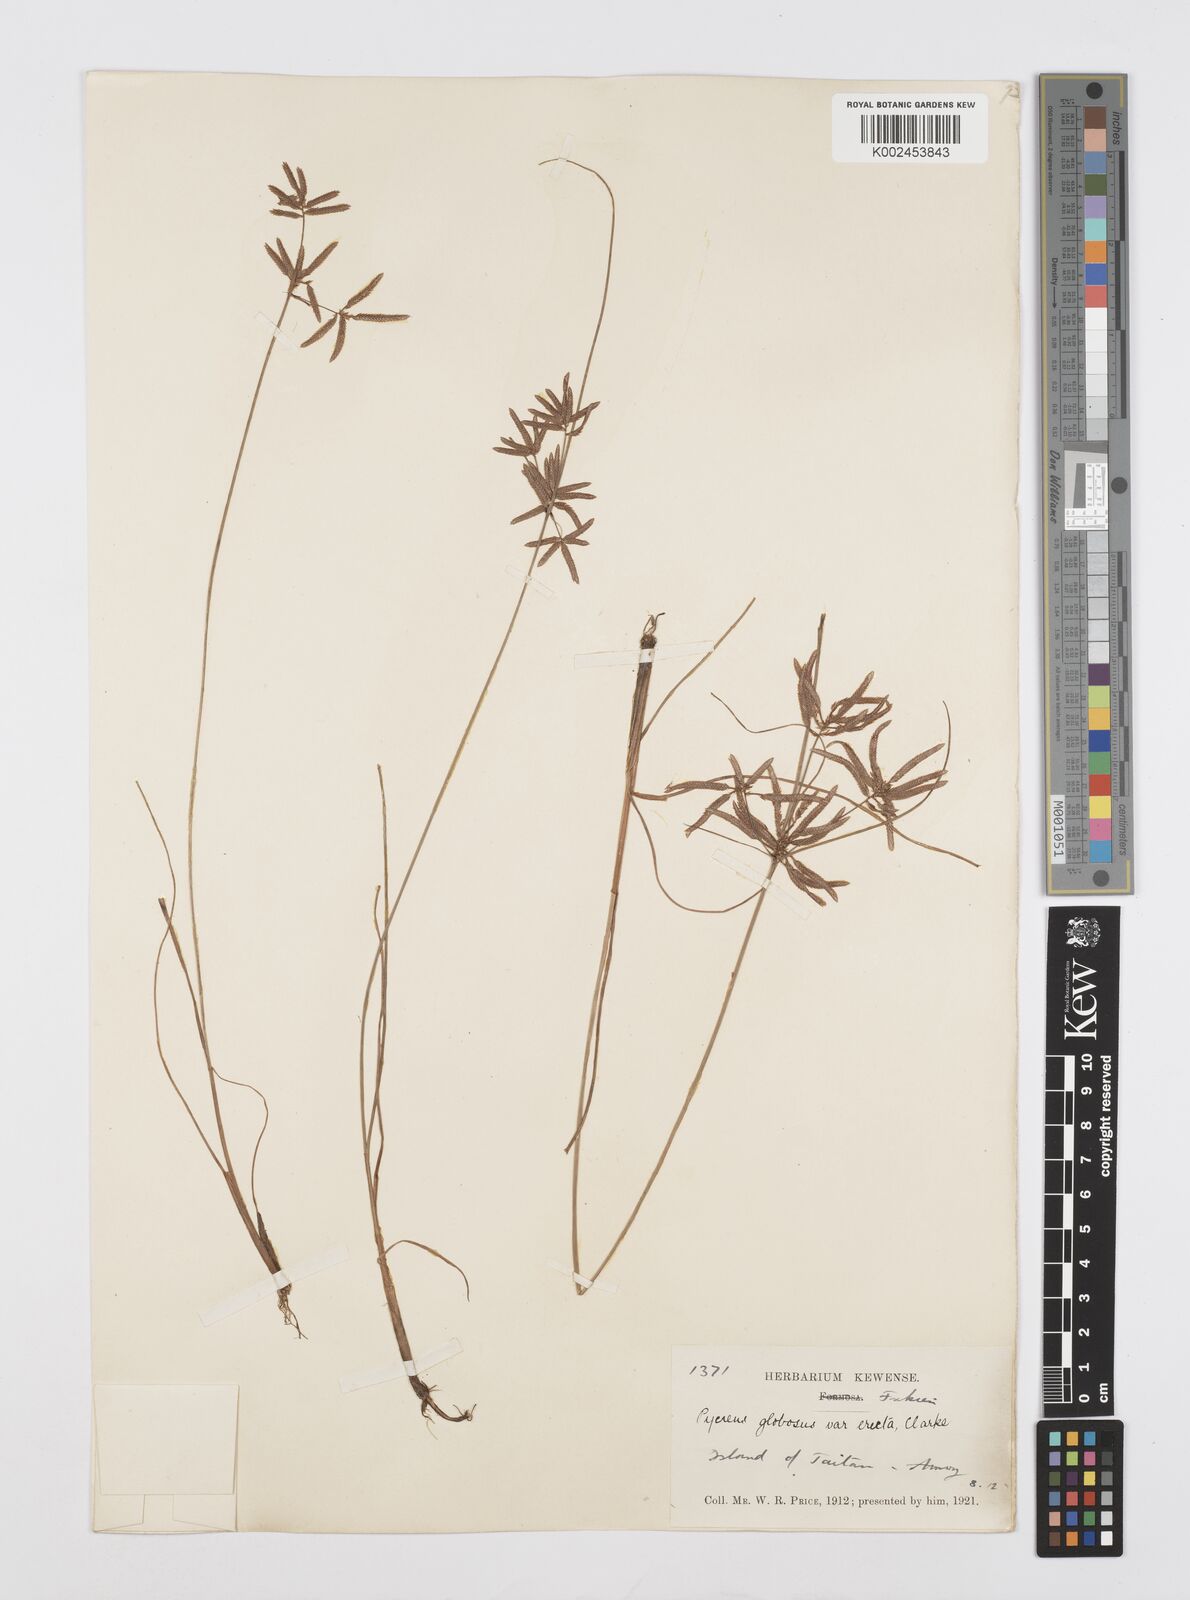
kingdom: Plantae
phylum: Tracheophyta
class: Liliopsida
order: Poales
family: Cyperaceae
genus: Cyperus
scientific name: Cyperus flavidus
